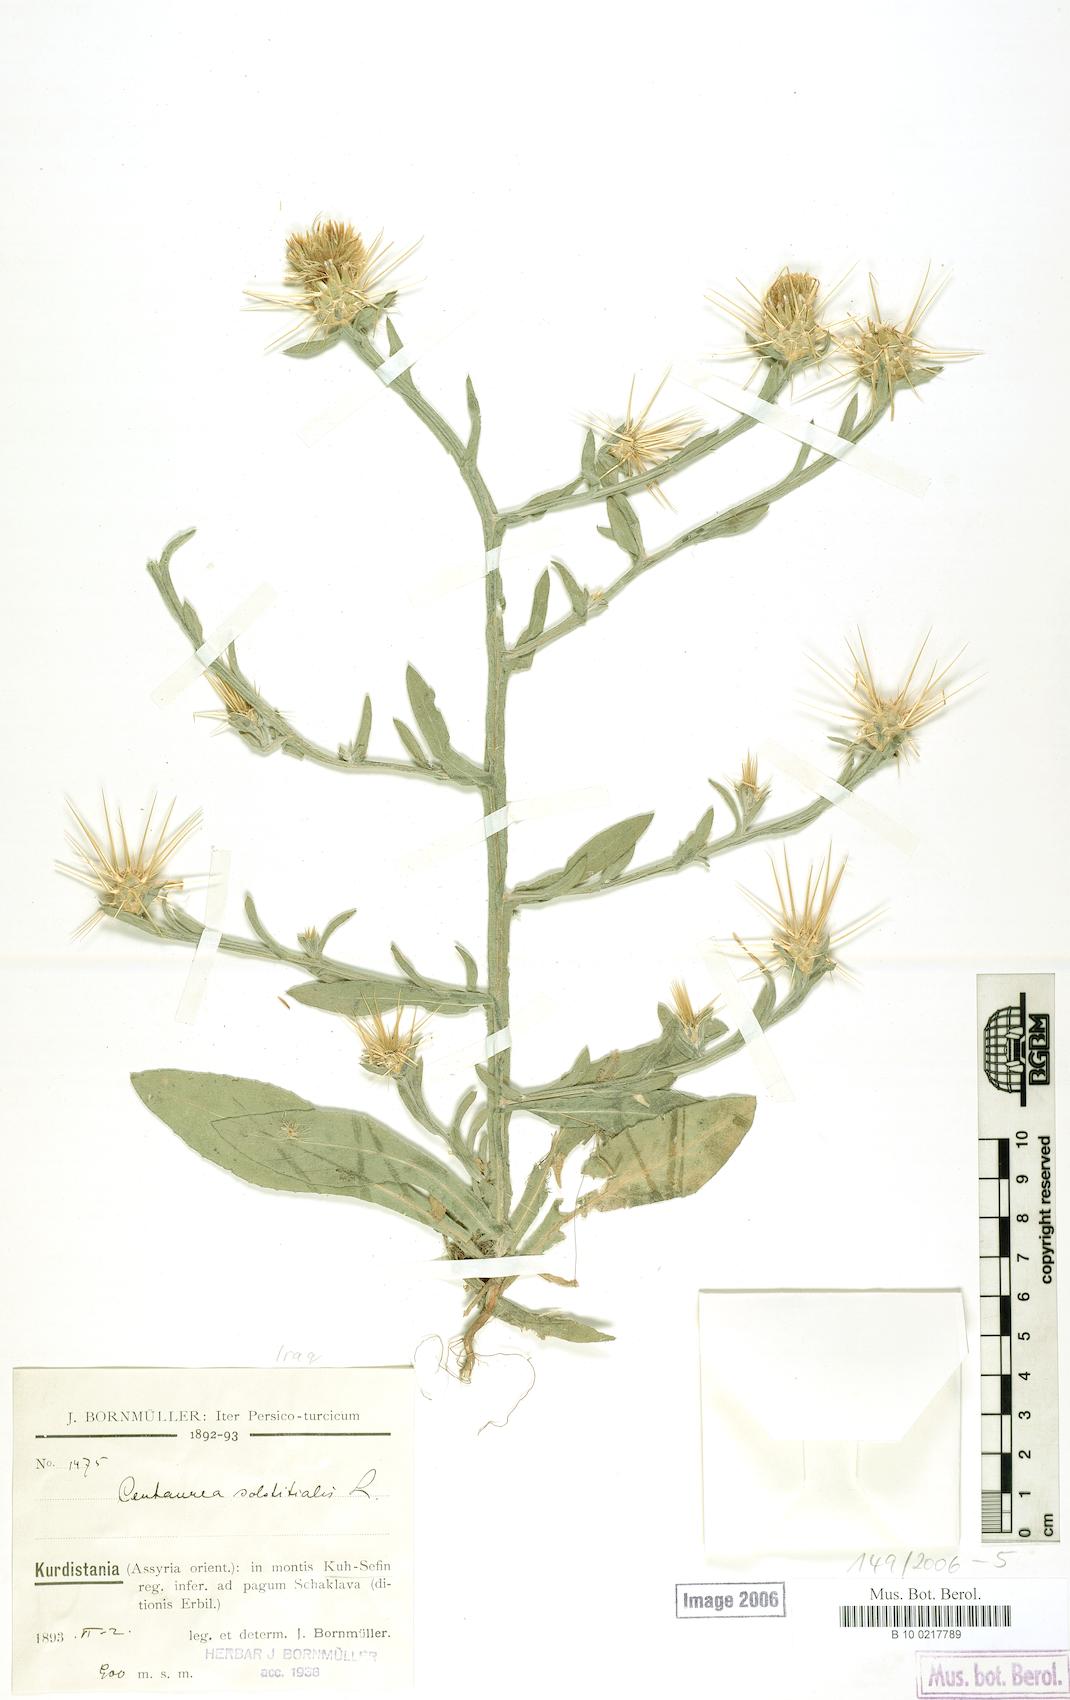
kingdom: Plantae
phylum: Tracheophyta
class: Magnoliopsida
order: Asterales
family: Asteraceae
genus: Centaurea
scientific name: Centaurea solstitialis
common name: Yellow star-thistle
